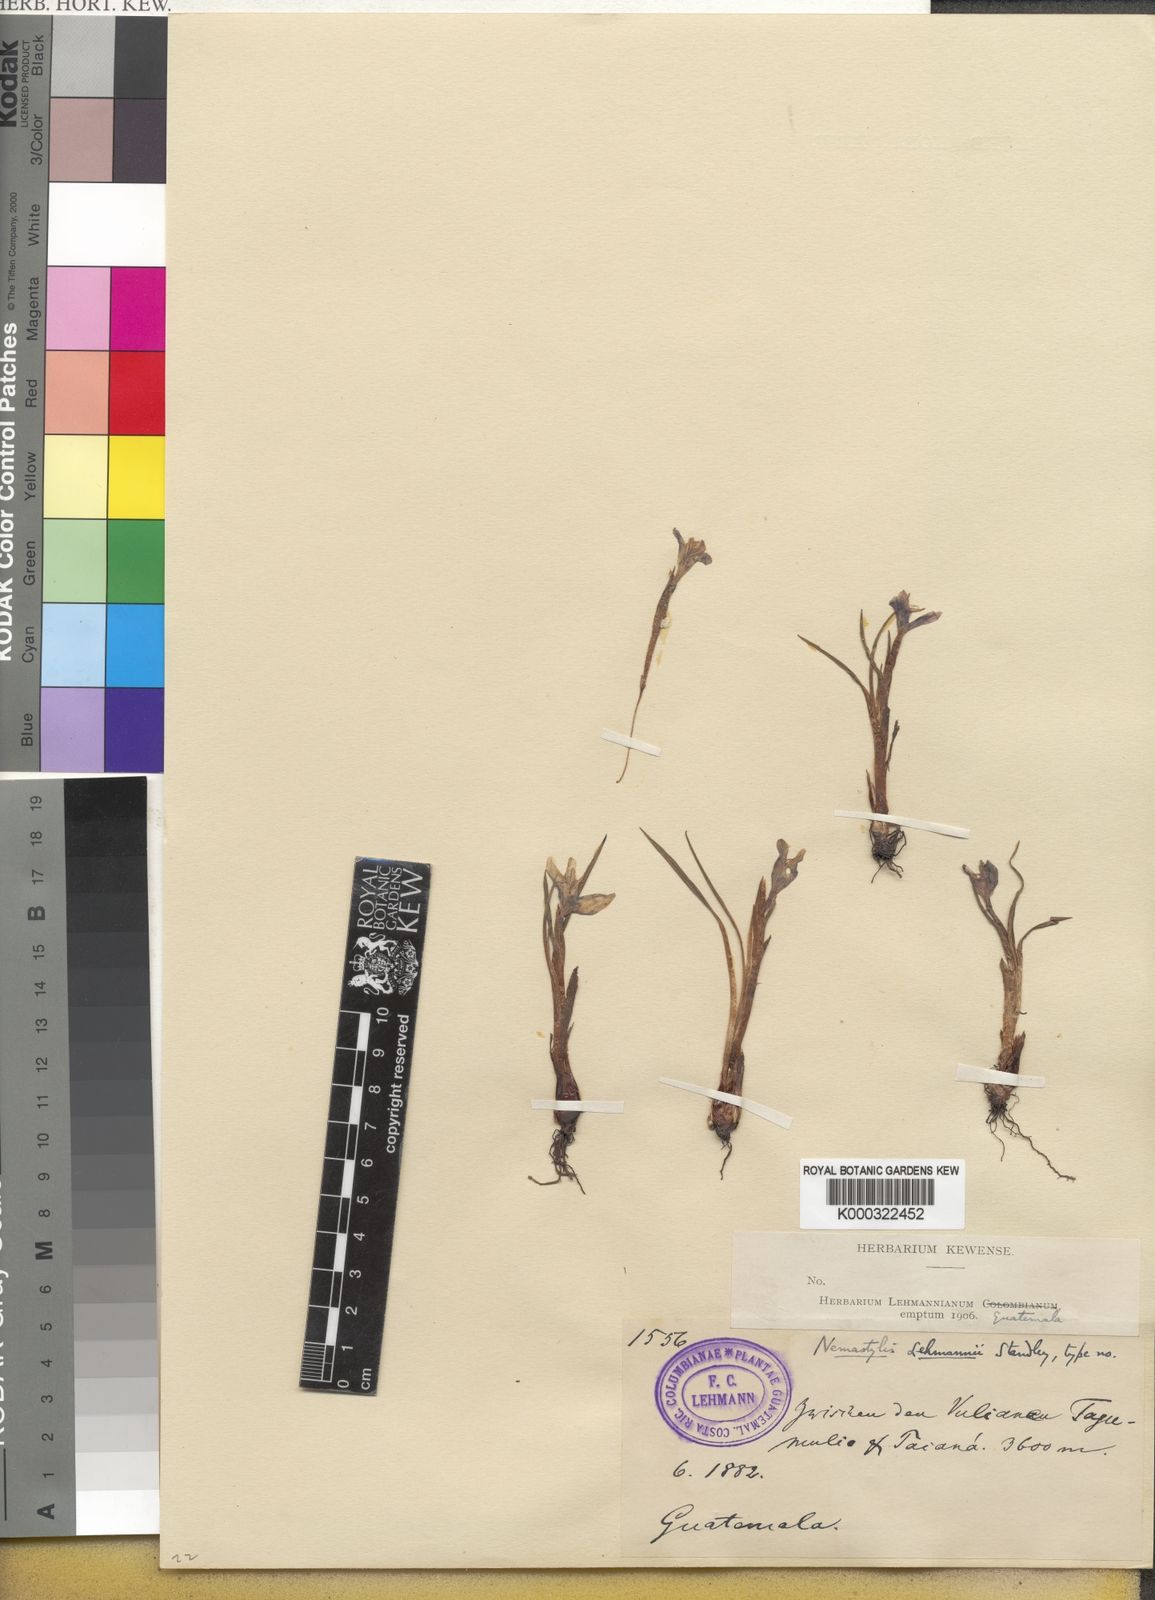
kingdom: Plantae
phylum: Tracheophyta
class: Liliopsida
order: Asparagales
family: Iridaceae
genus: Tigridia
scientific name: Tigridia seleriana
